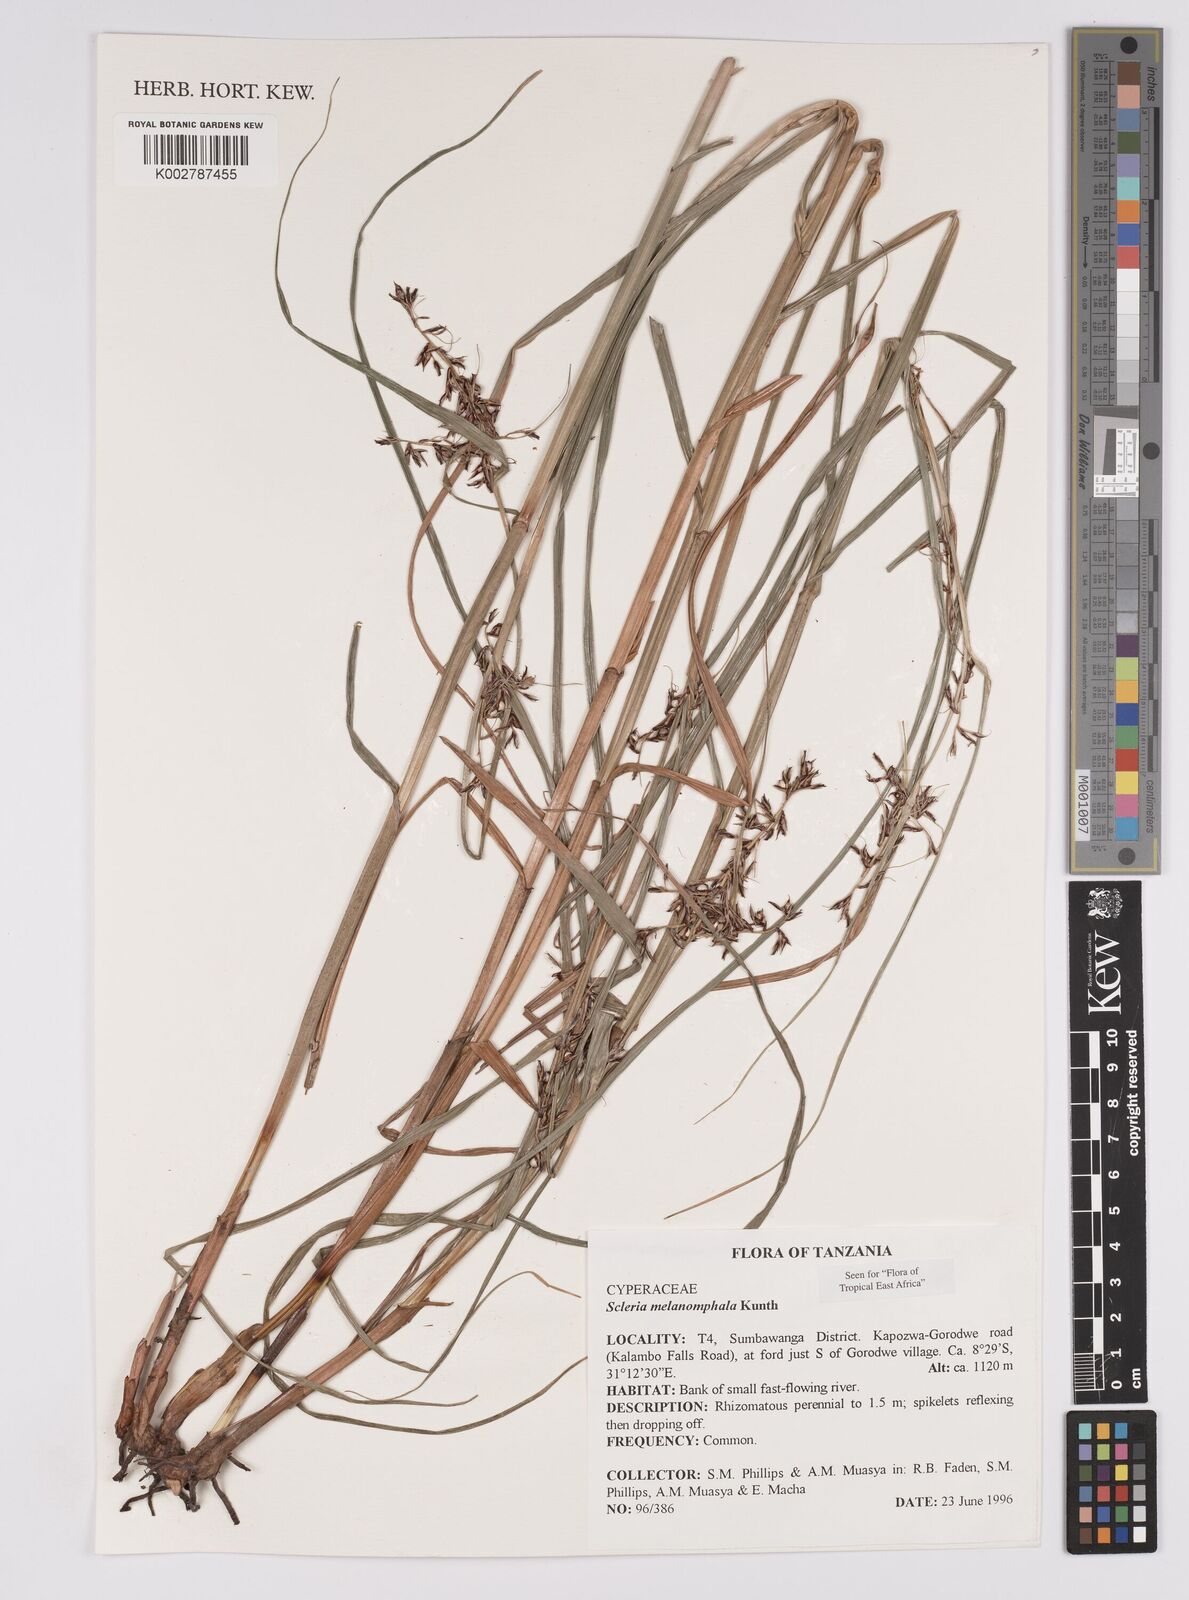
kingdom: Plantae
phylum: Tracheophyta
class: Liliopsida
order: Poales
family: Cyperaceae
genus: Scleria
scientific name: Scleria melanomphala
